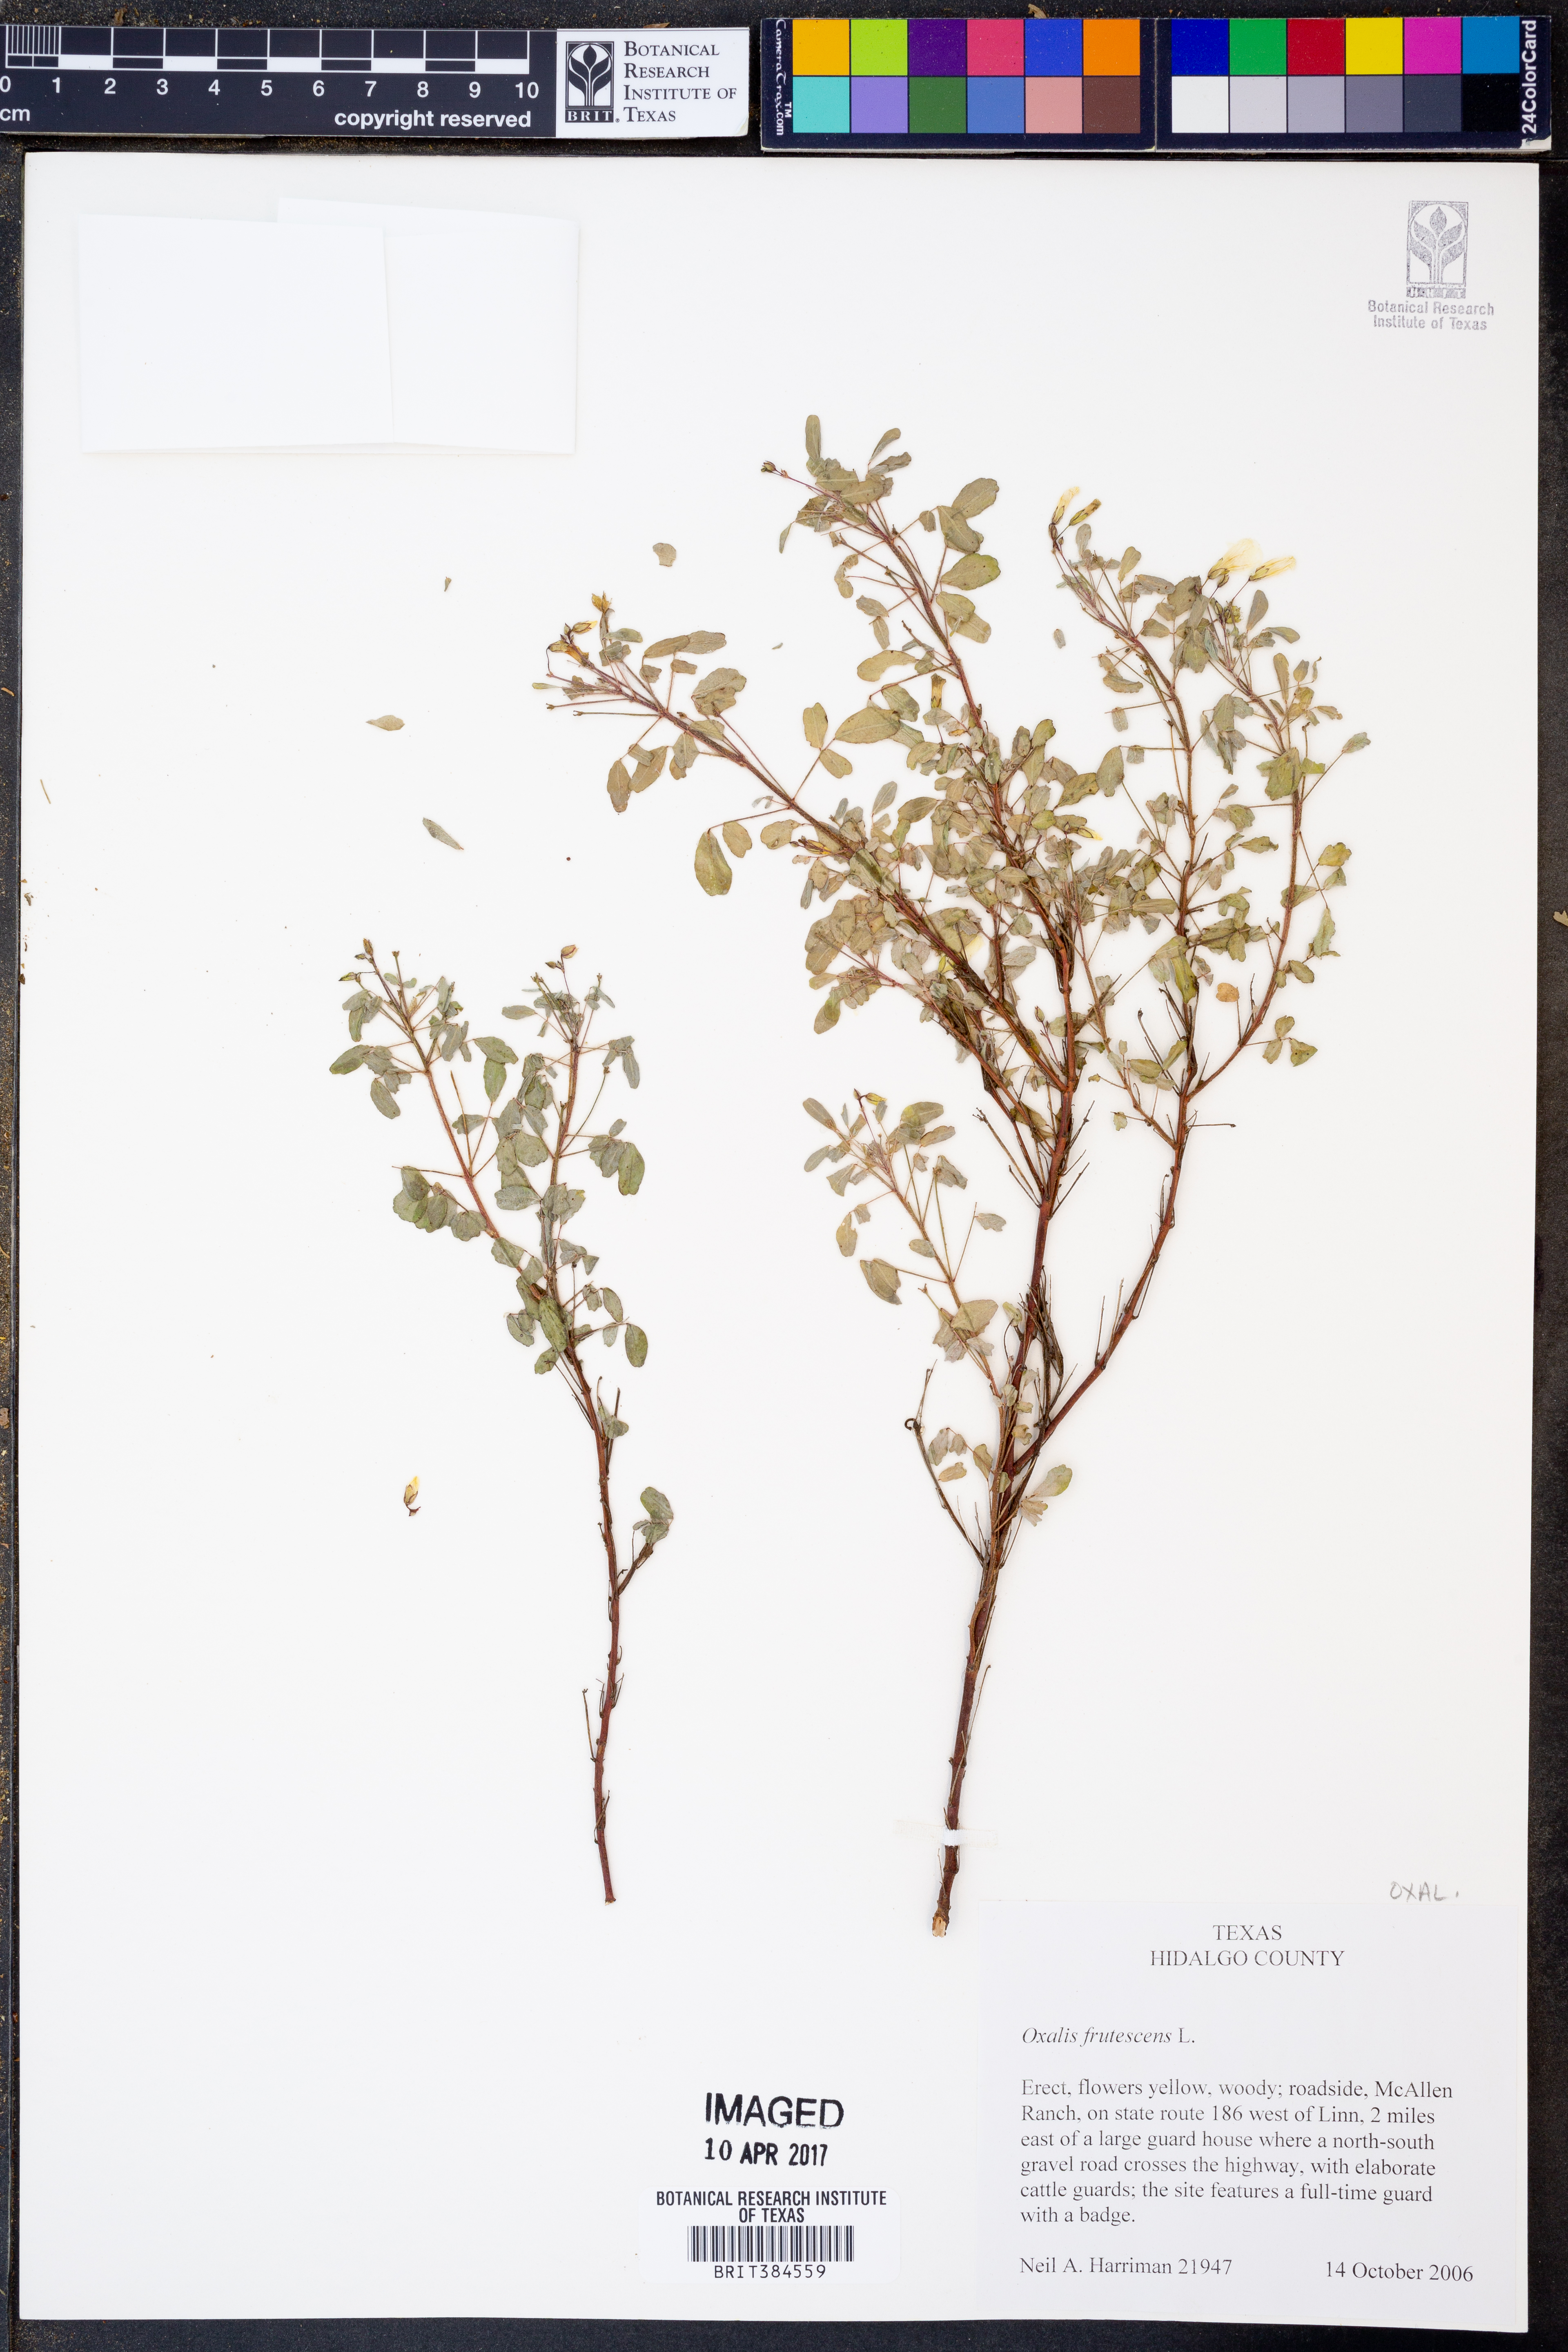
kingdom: Plantae
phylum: Tracheophyta
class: Magnoliopsida
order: Oxalidales
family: Oxalidaceae
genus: Oxalis
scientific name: Oxalis frutescens
